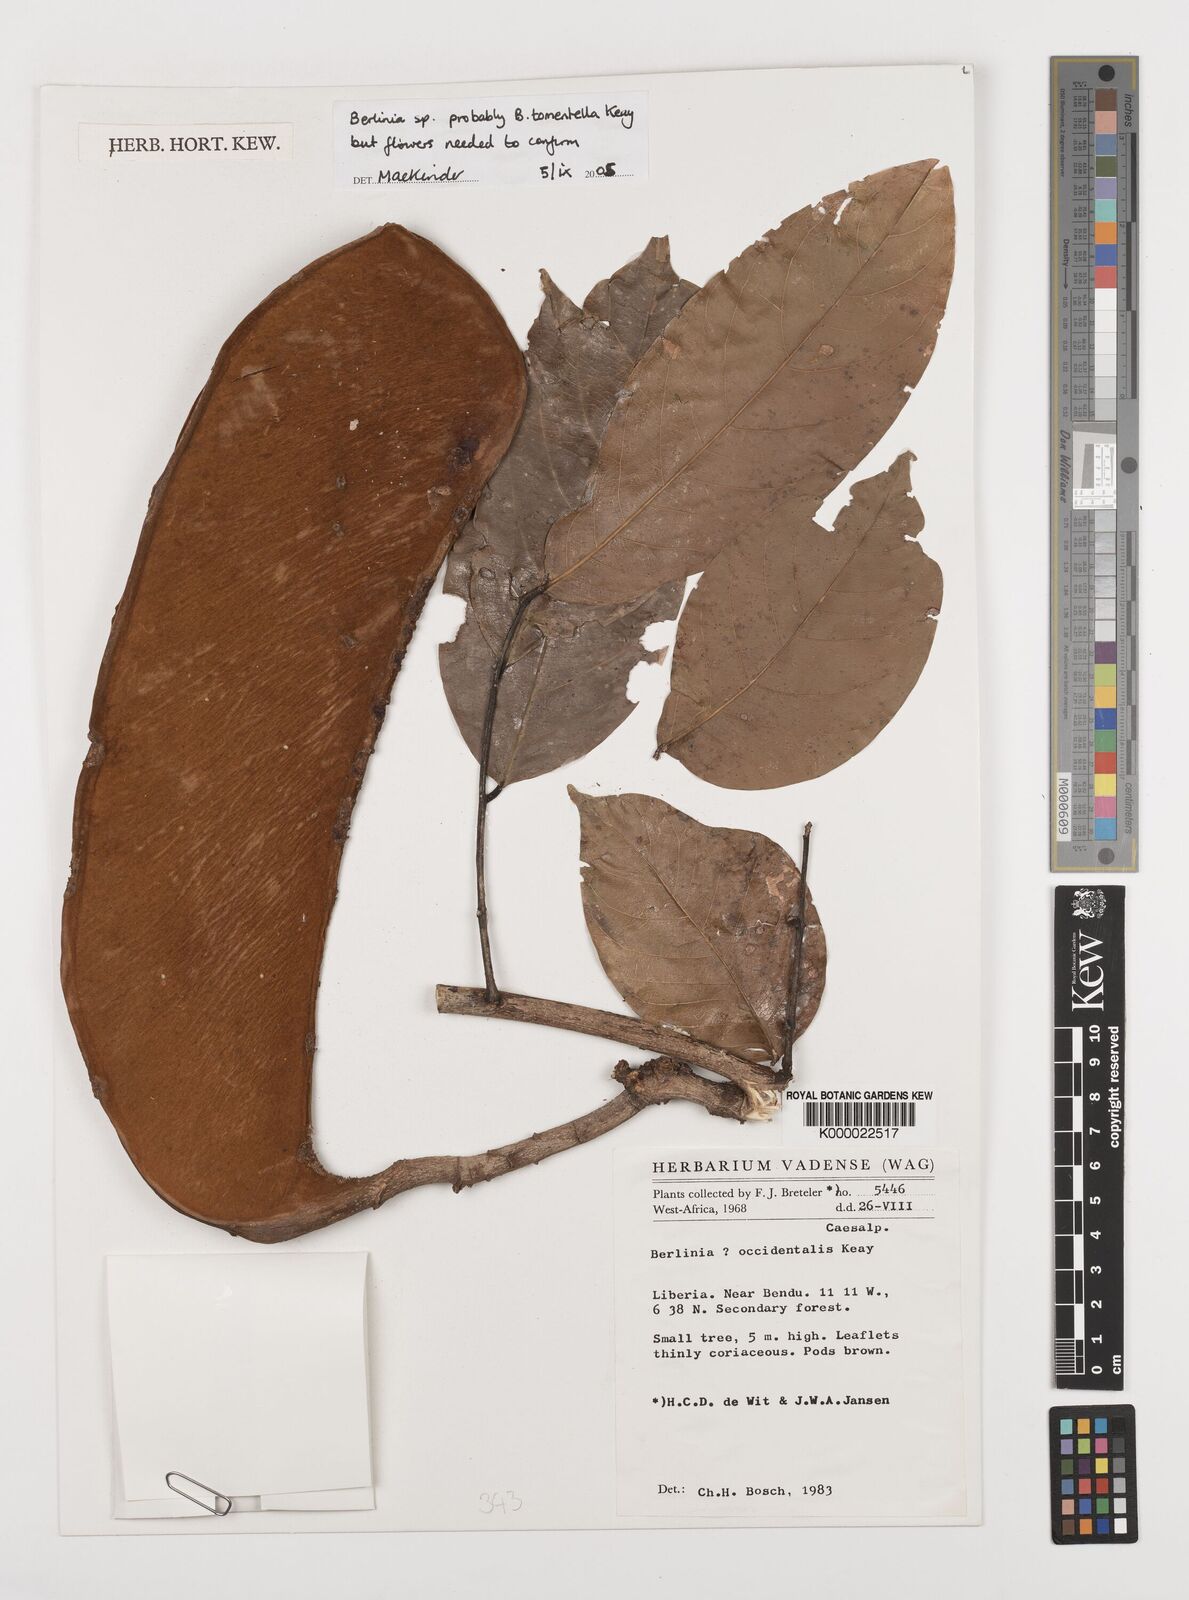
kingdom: Plantae
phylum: Tracheophyta
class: Magnoliopsida
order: Fabales
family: Fabaceae
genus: Berlinia
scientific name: Berlinia tomentella
